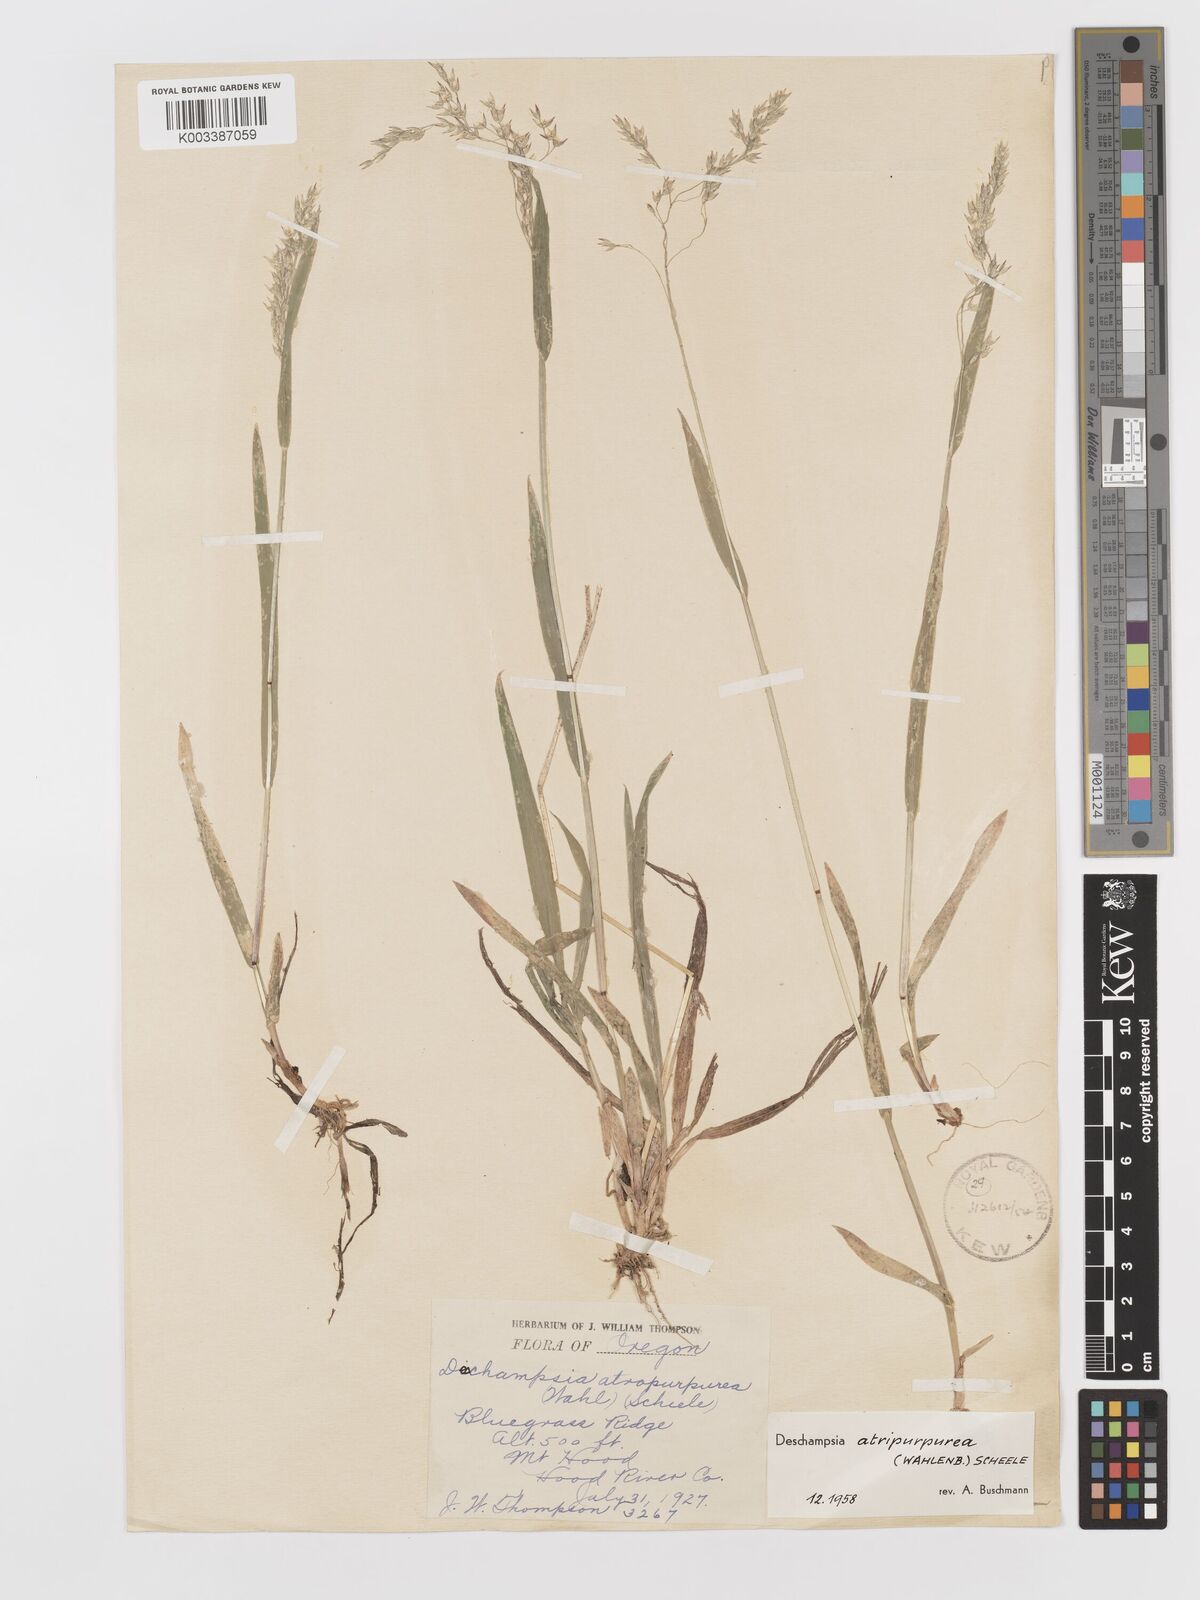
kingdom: Plantae
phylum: Tracheophyta
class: Liliopsida
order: Poales
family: Poaceae
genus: Vahlodea
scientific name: Vahlodea atropurpurea
